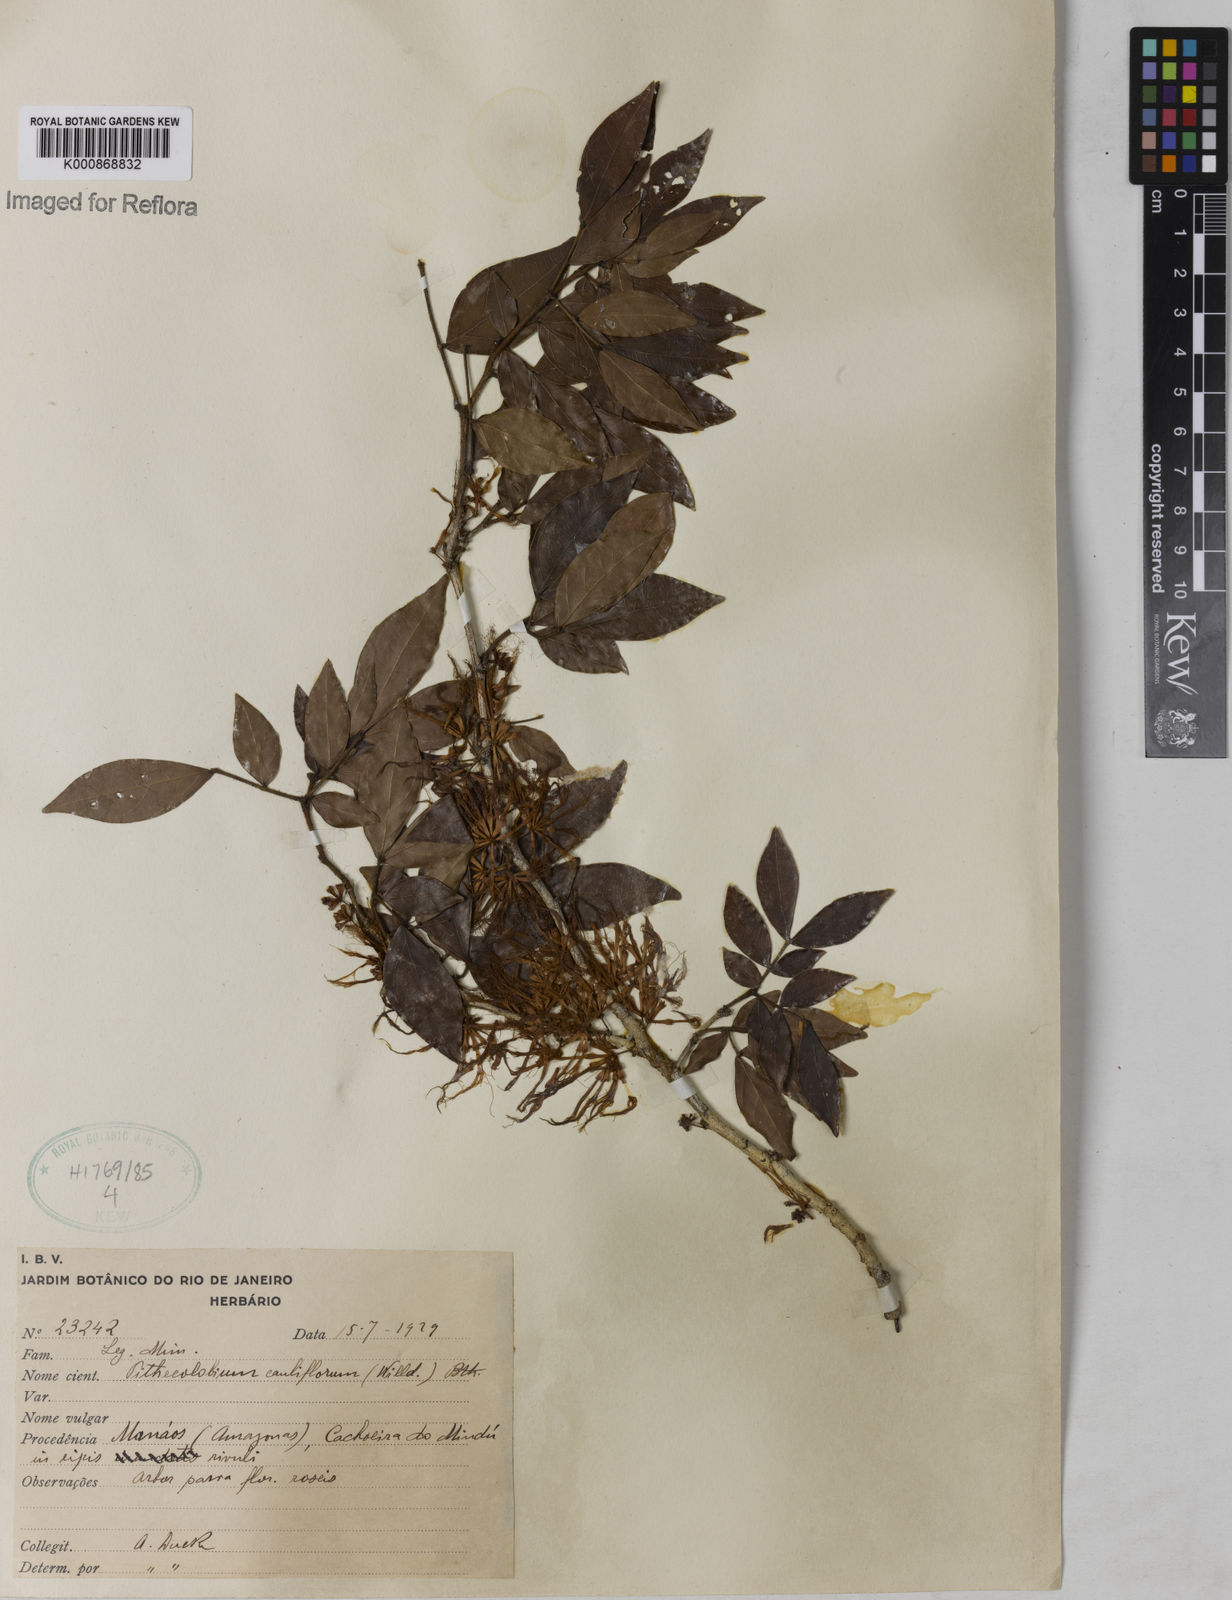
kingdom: Plantae
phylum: Tracheophyta
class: Magnoliopsida
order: Fabales
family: Fabaceae
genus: Zygia
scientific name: Zygia
